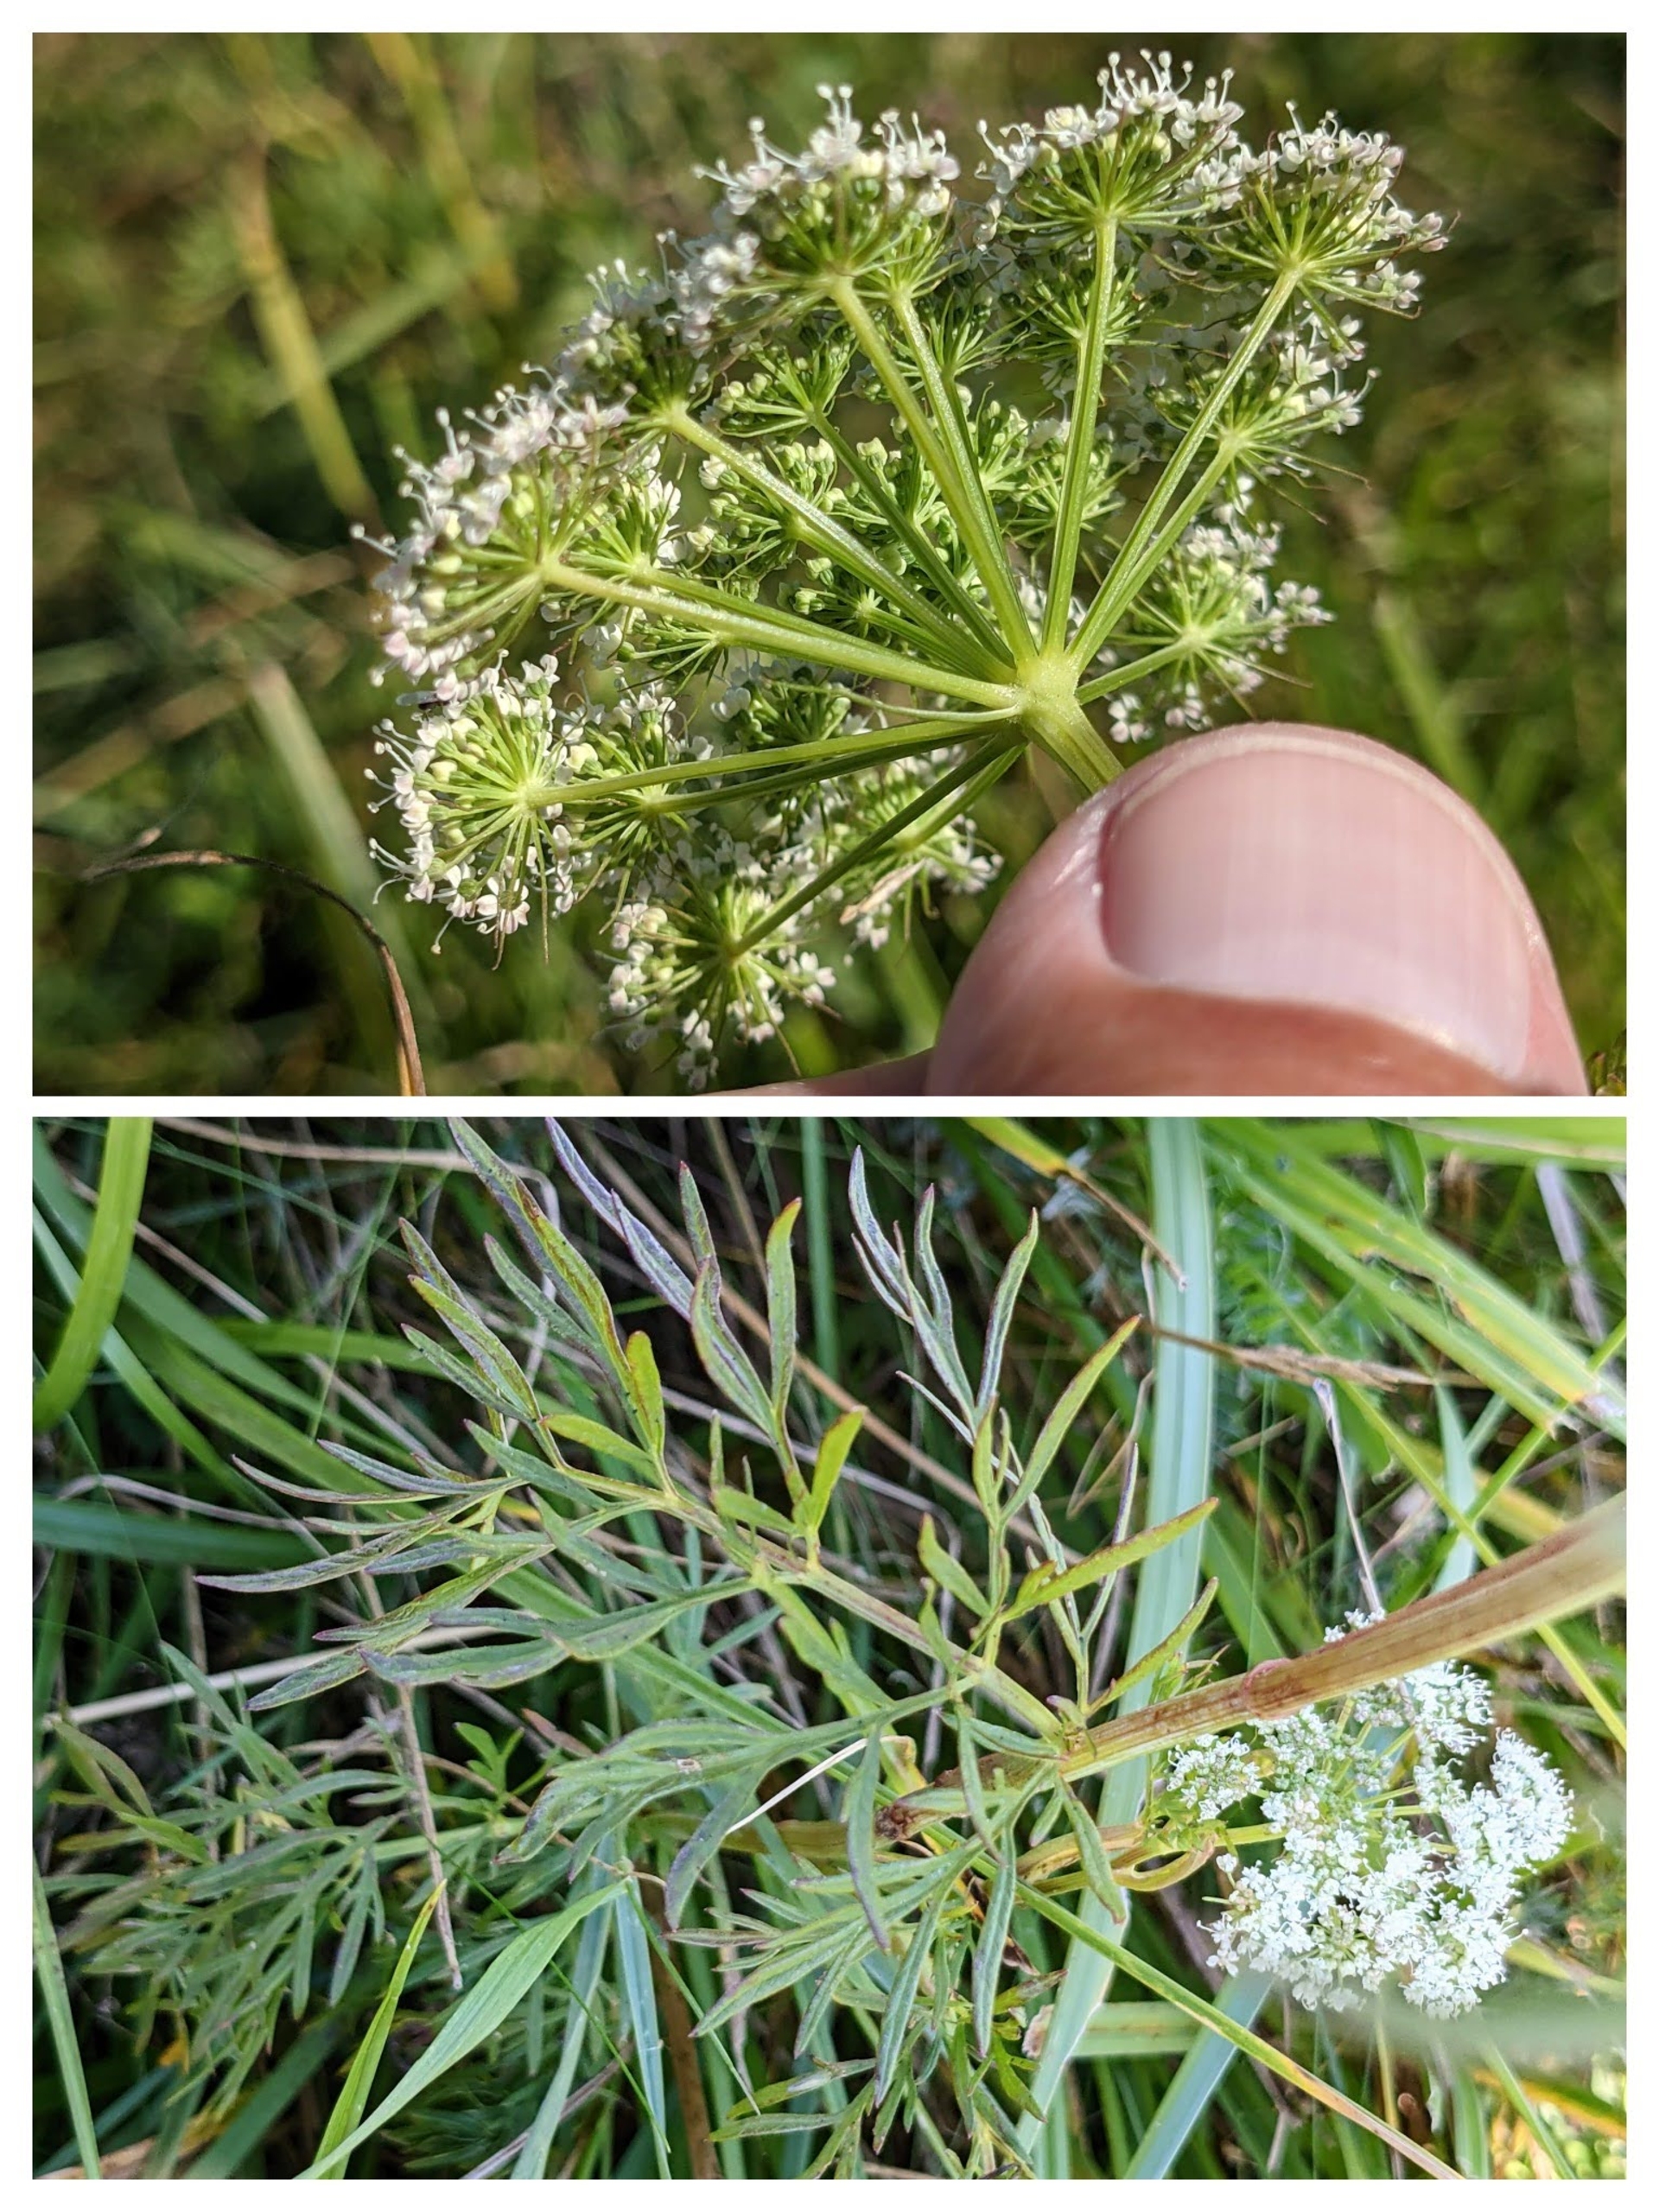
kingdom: Plantae
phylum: Tracheophyta
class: Magnoliopsida
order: Apiales
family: Apiaceae
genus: Kadenia
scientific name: Kadenia dubia
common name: Brændeskærm
